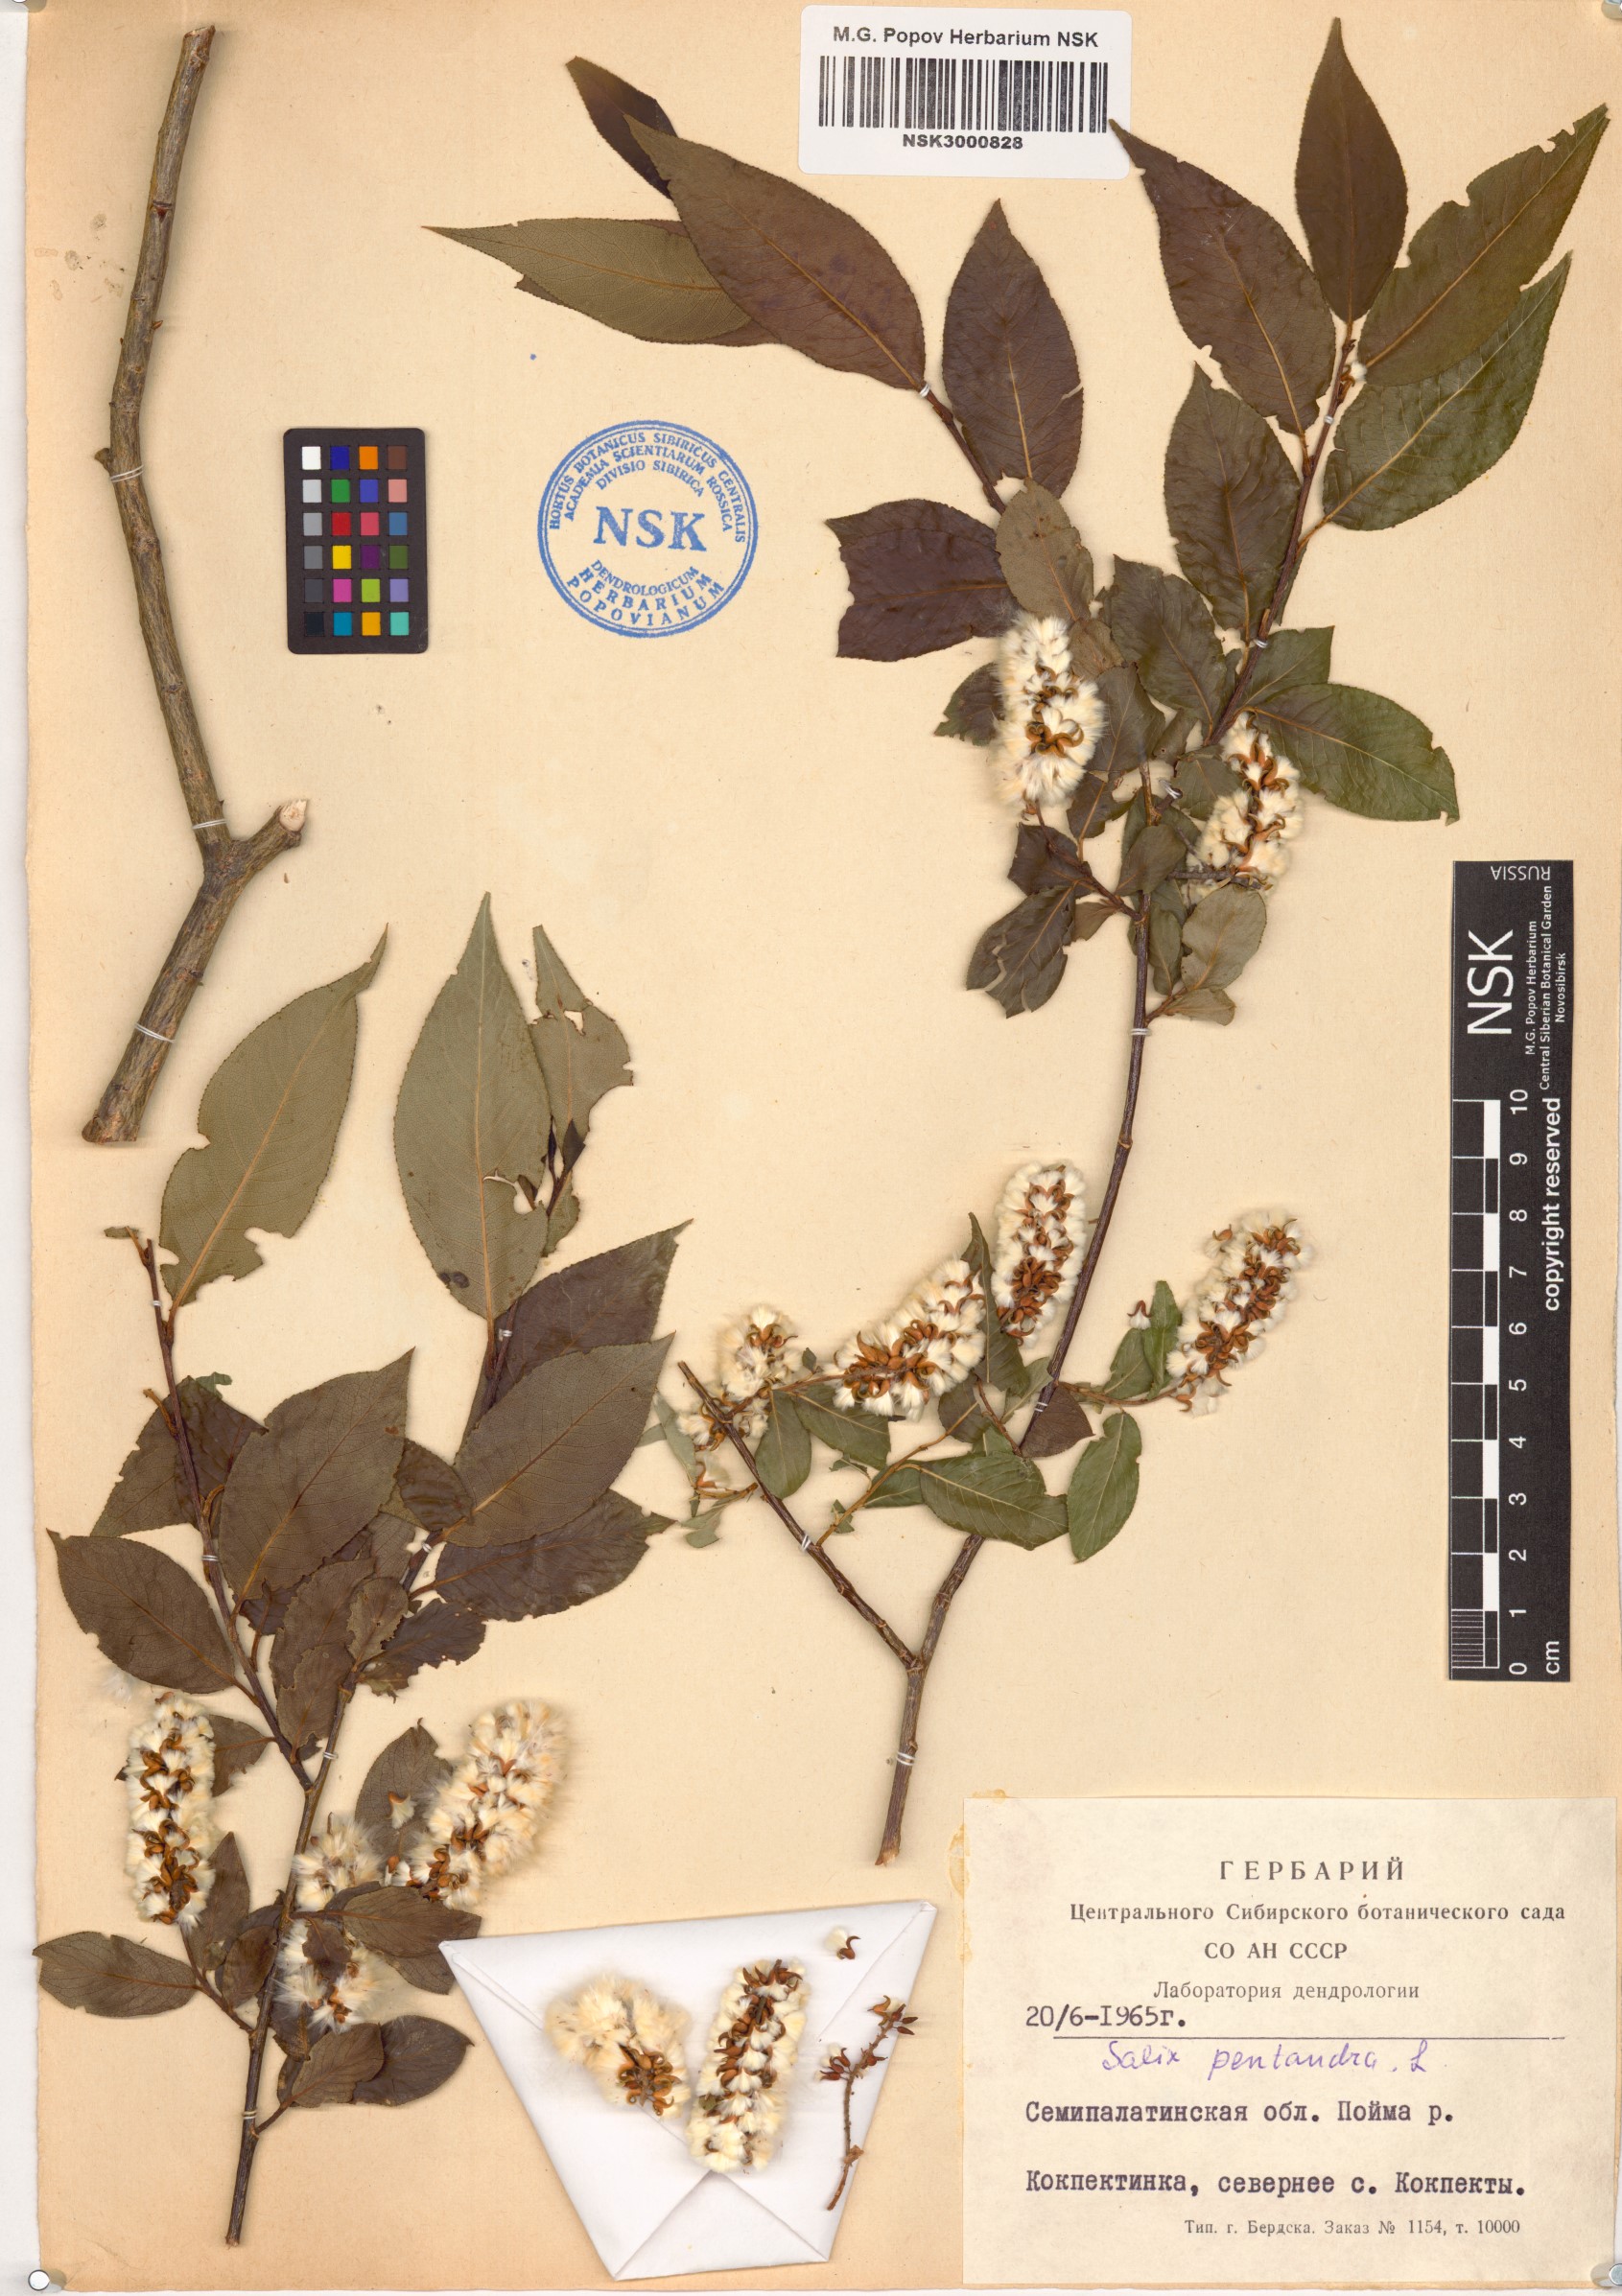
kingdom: Plantae
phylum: Tracheophyta
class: Magnoliopsida
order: Malpighiales
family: Salicaceae
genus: Salix
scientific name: Salix pentandra
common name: Bay willow
